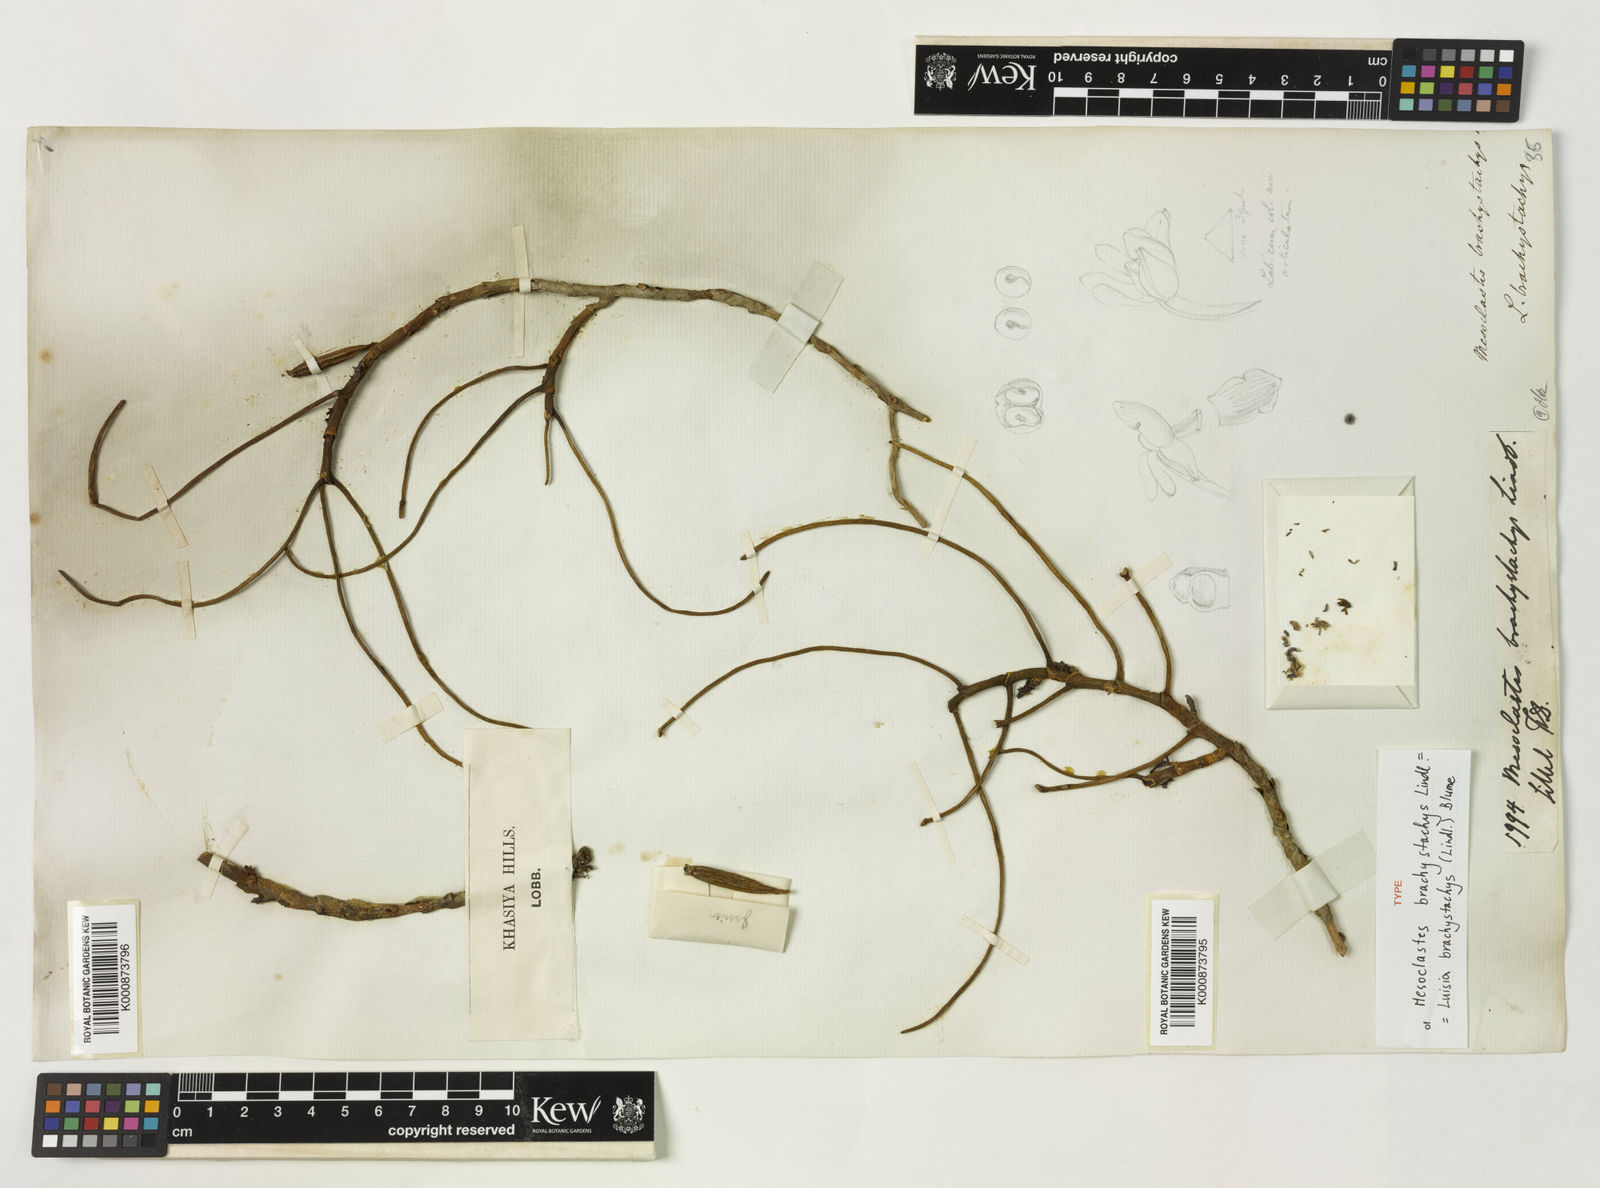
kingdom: Plantae
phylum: Tracheophyta
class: Liliopsida
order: Asparagales
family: Orchidaceae
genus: Luisia
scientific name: Luisia brachystachys
